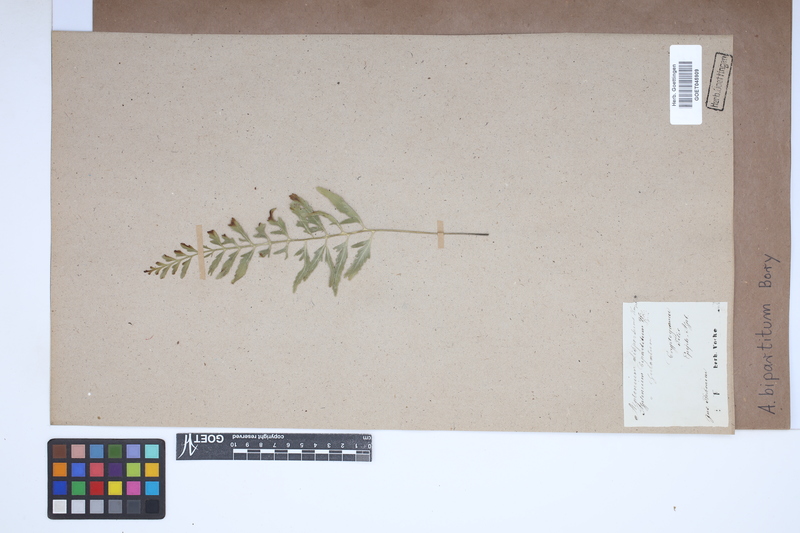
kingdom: Plantae
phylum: Tracheophyta
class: Polypodiopsida
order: Polypodiales
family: Aspleniaceae
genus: Asplenium
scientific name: Asplenium bipartitum
